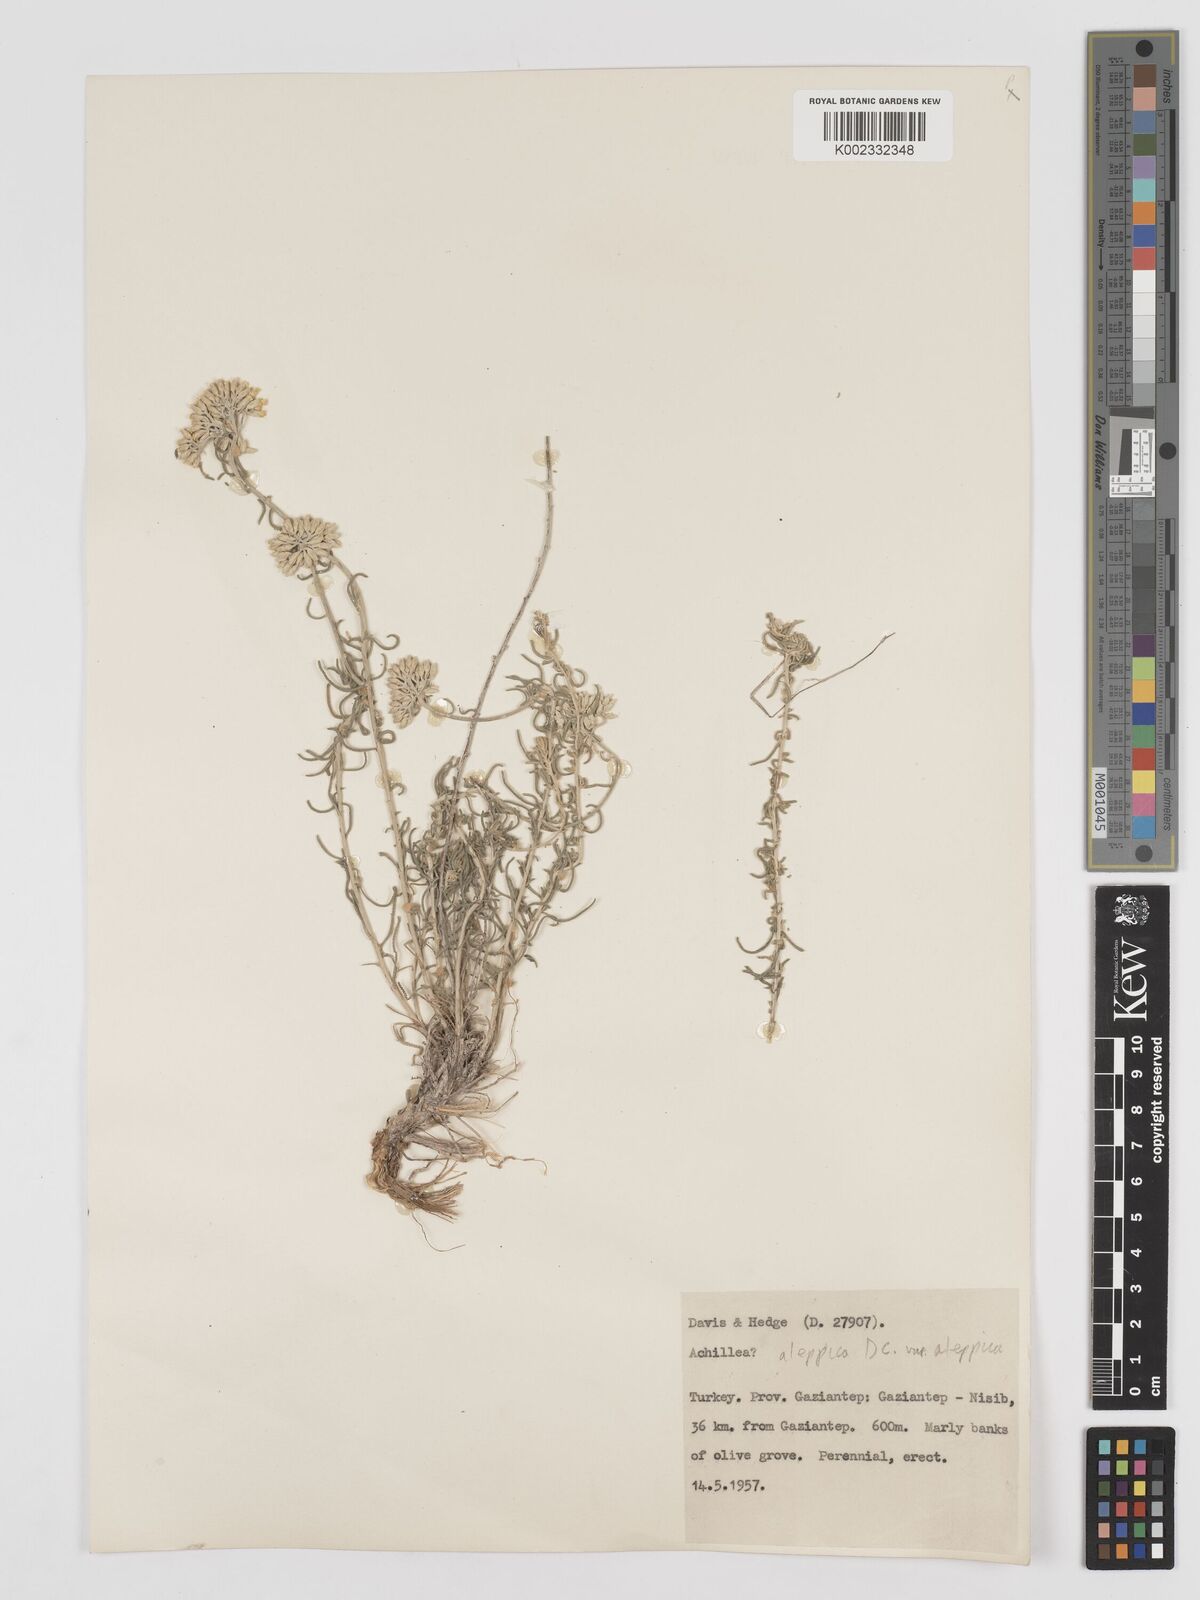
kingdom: Plantae
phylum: Tracheophyta
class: Magnoliopsida
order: Asterales
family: Asteraceae
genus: Achillea
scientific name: Achillea aleppica
